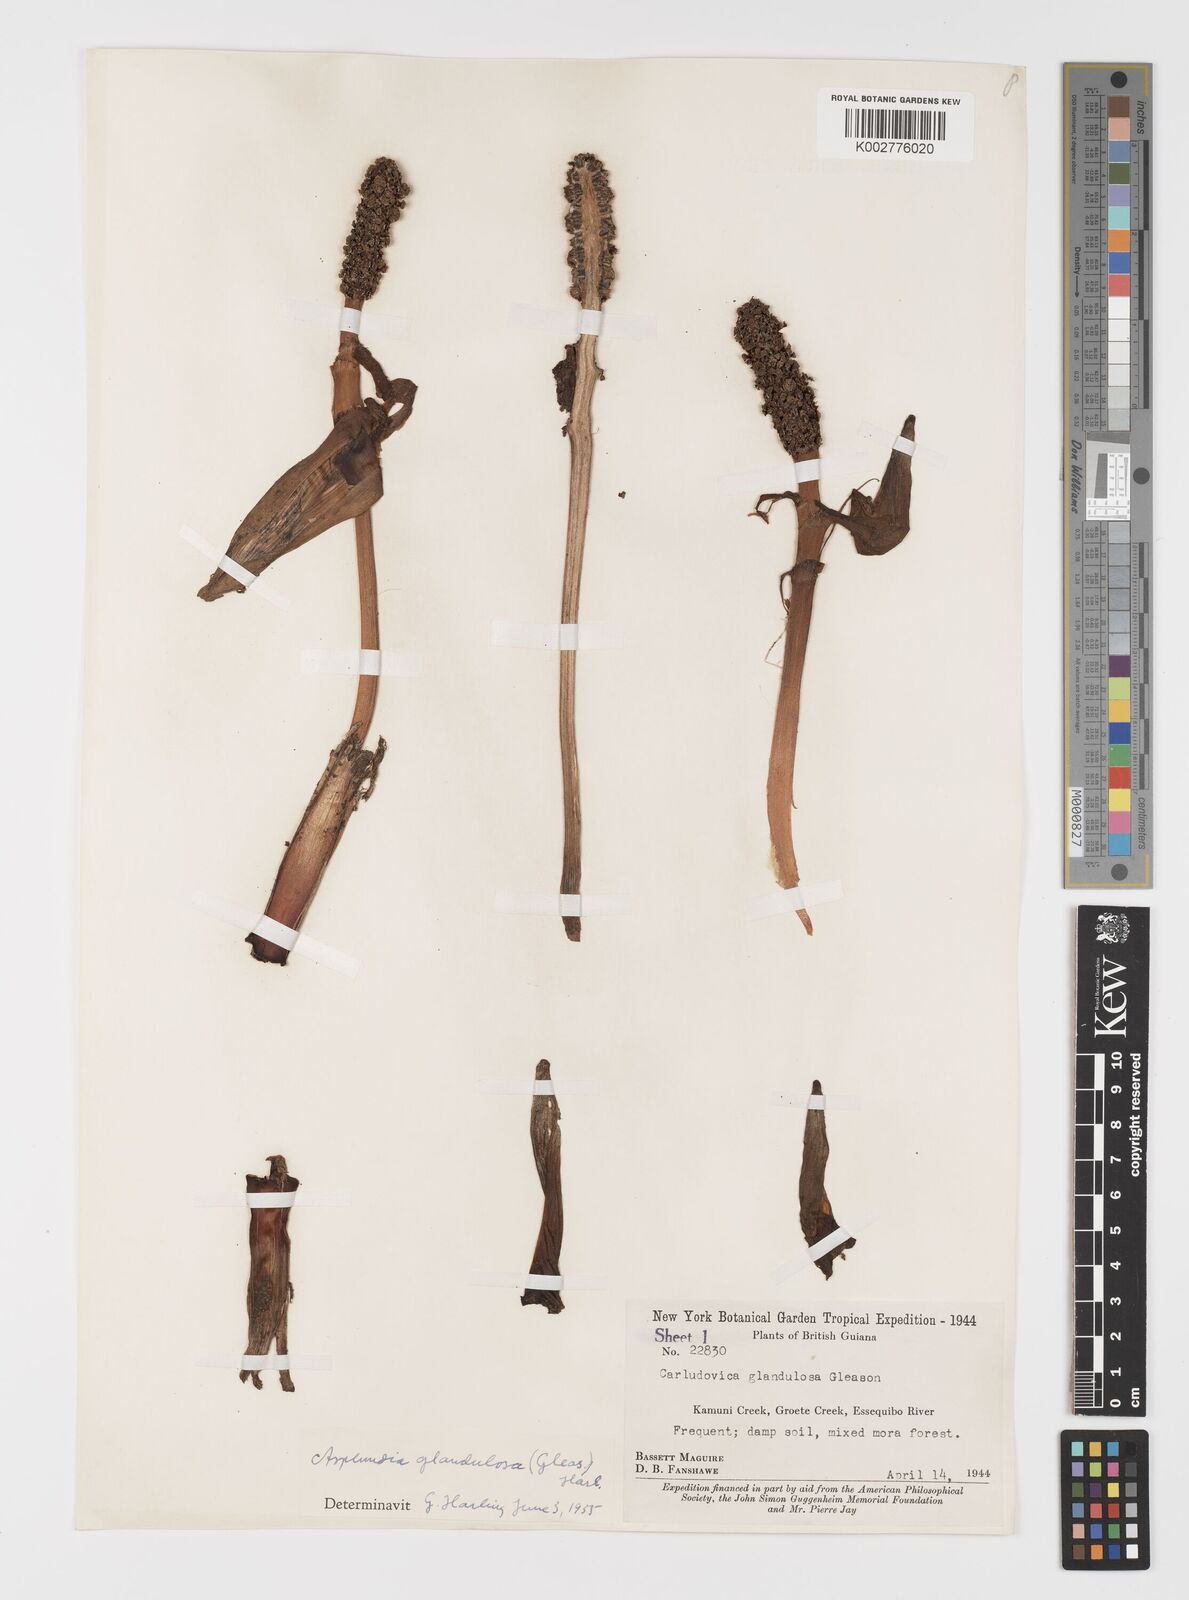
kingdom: Plantae
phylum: Tracheophyta
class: Liliopsida
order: Pandanales
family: Cyclanthaceae
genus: Asplundia
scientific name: Asplundia glandulosa
